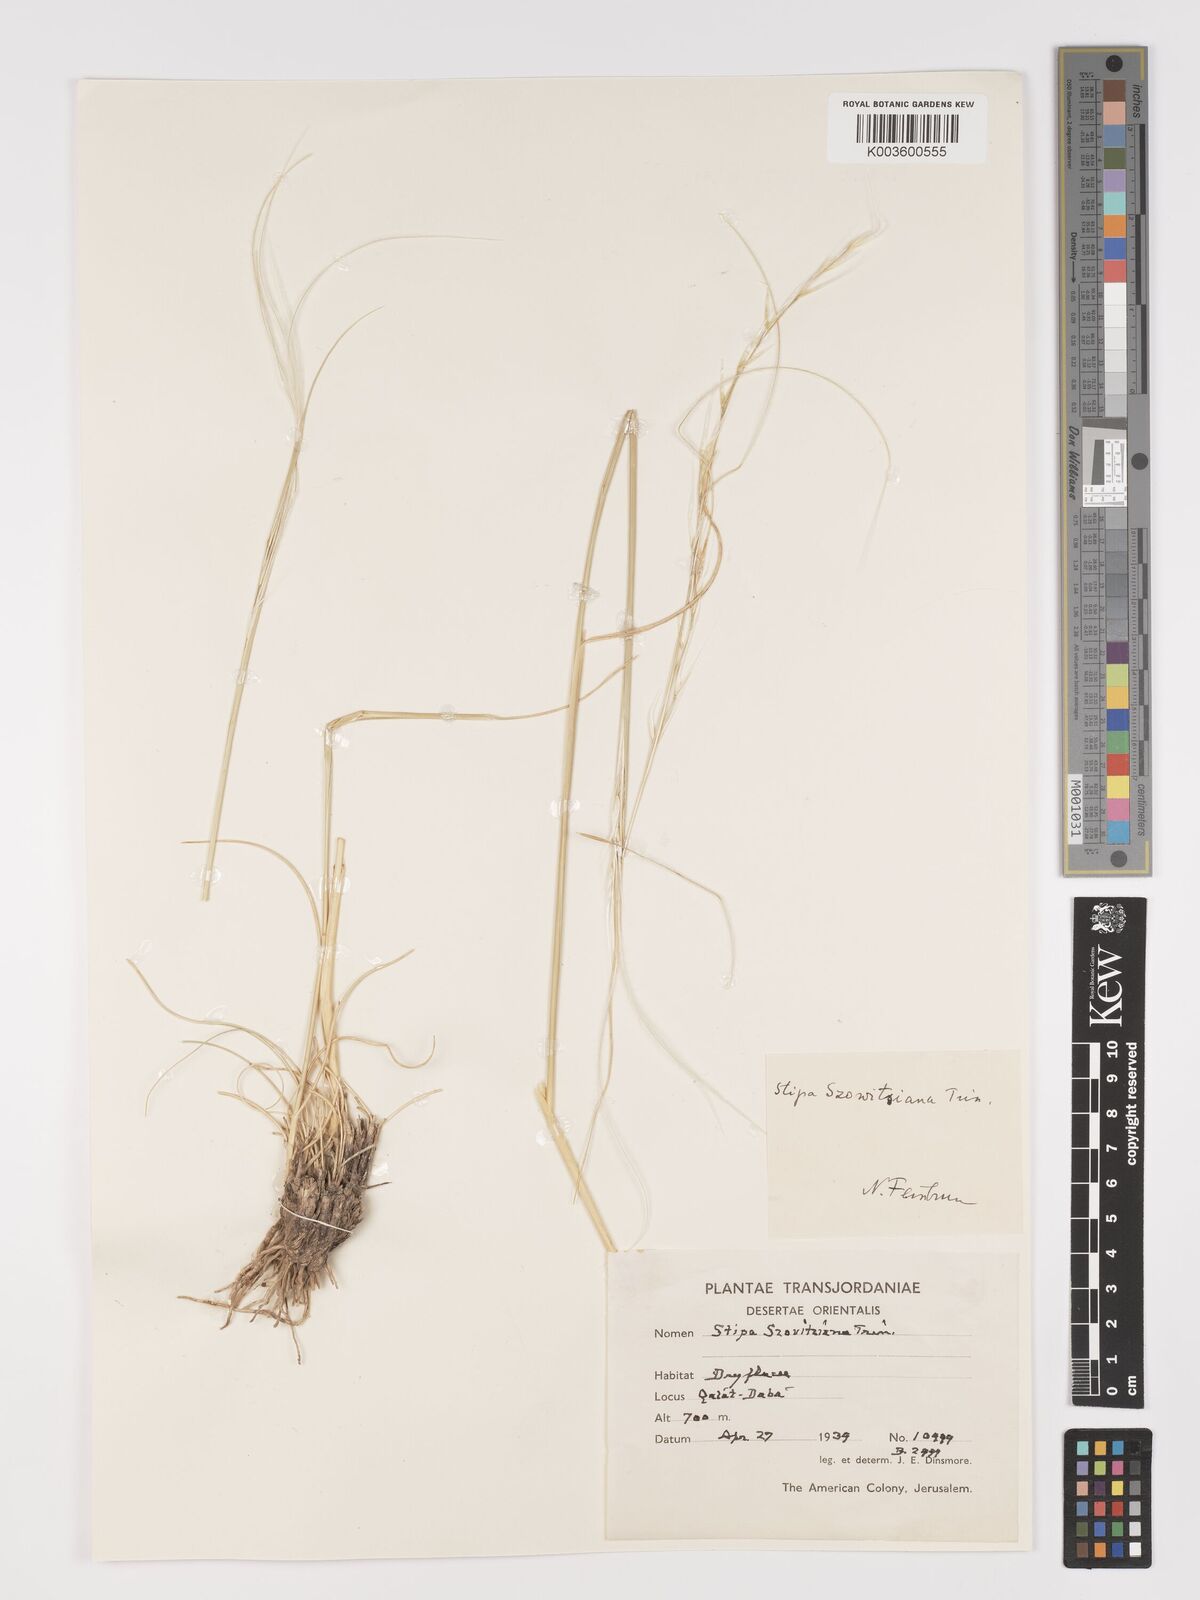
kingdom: Plantae
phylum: Tracheophyta
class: Liliopsida
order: Poales
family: Poaceae
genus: Stipa
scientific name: Stipa barbata
